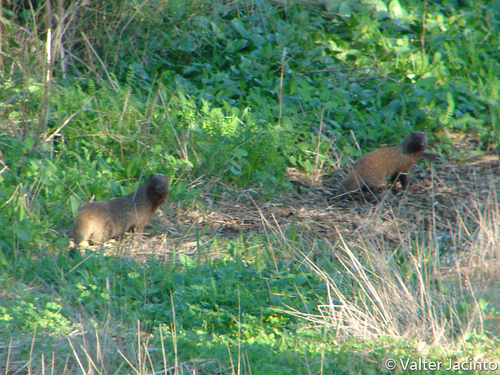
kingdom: Animalia
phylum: Chordata
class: Mammalia
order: Carnivora
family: Herpestidae
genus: Herpestes
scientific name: Herpestes ichneumon
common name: Egyptian mongoose
